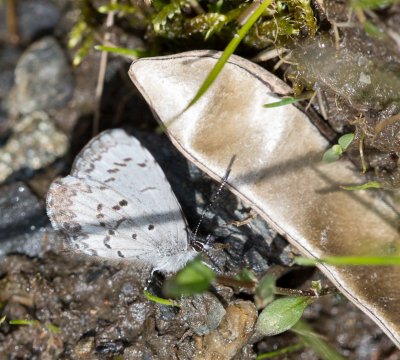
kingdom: Animalia
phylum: Arthropoda
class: Insecta
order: Lepidoptera
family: Lycaenidae
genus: Celastrina
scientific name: Celastrina lucia
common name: Northern Spring Azure
